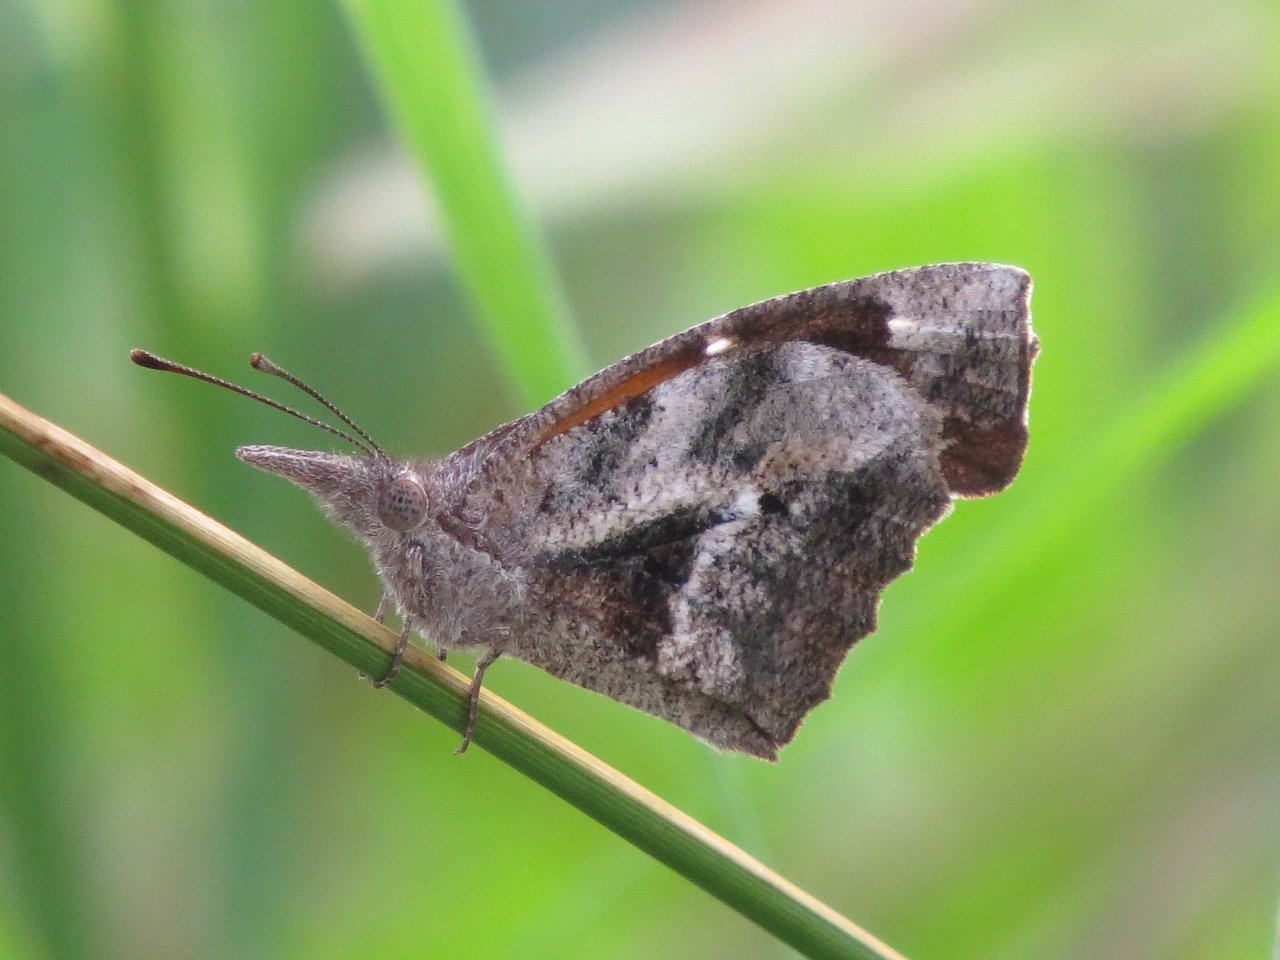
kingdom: Animalia
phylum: Arthropoda
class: Insecta
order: Lepidoptera
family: Nymphalidae
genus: Libytheana
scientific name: Libytheana carinenta
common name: American Snout
